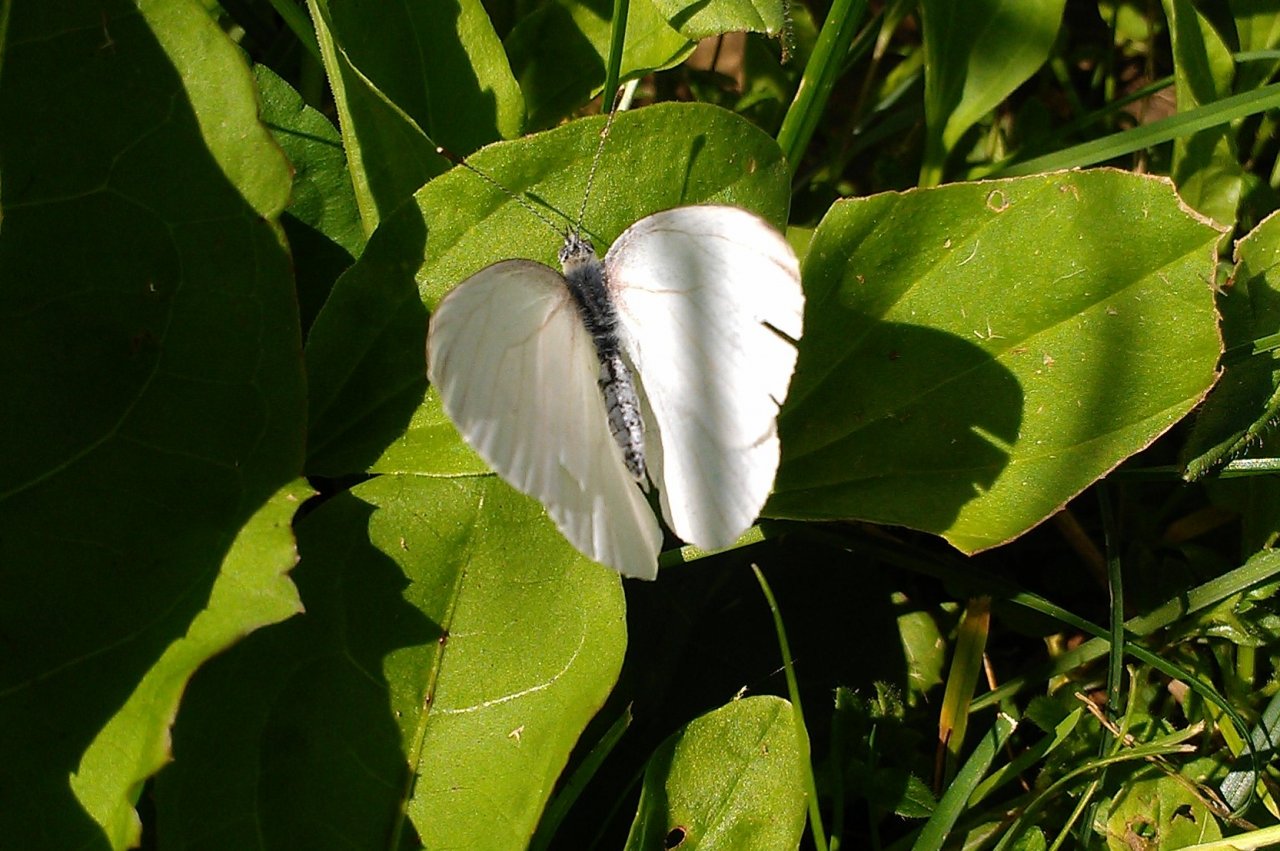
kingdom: Animalia
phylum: Arthropoda
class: Insecta
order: Lepidoptera
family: Pieridae
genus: Pieris
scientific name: Pieris oleracea
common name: Mustard White
